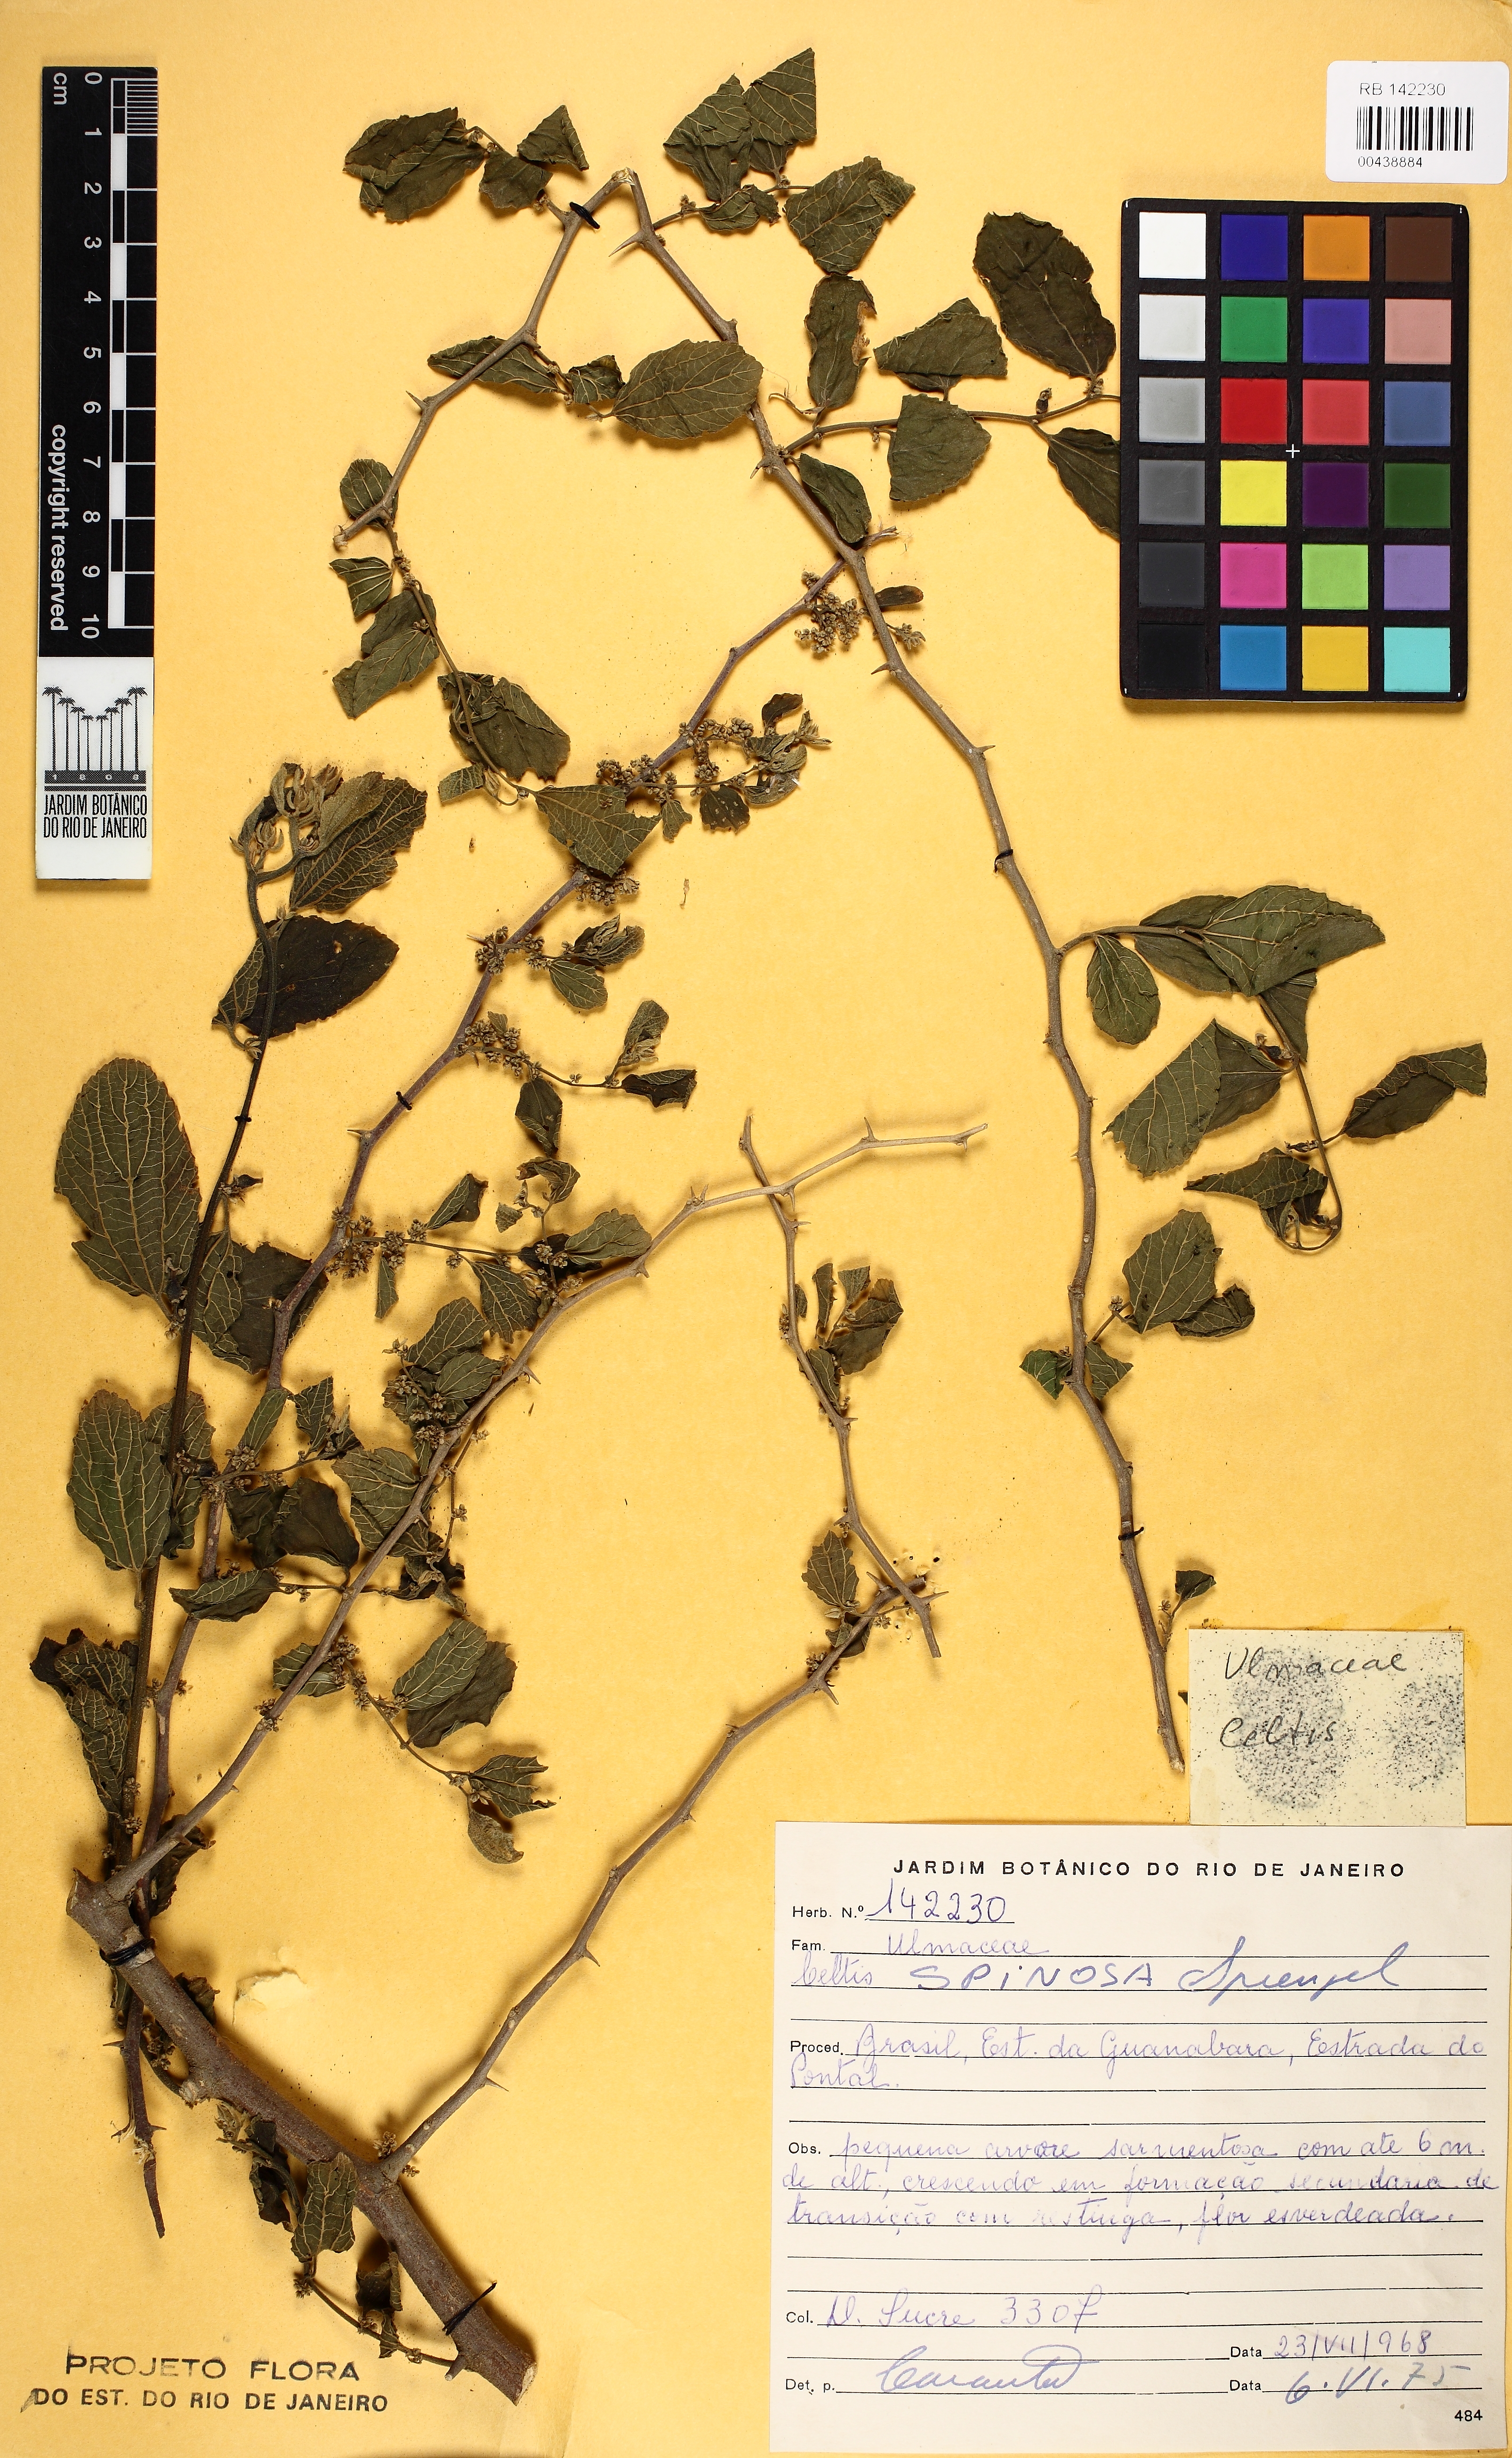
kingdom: Plantae
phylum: Tracheophyta
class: Magnoliopsida
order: Rosales
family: Cannabaceae
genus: Celtis
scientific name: Celtis spinosa
